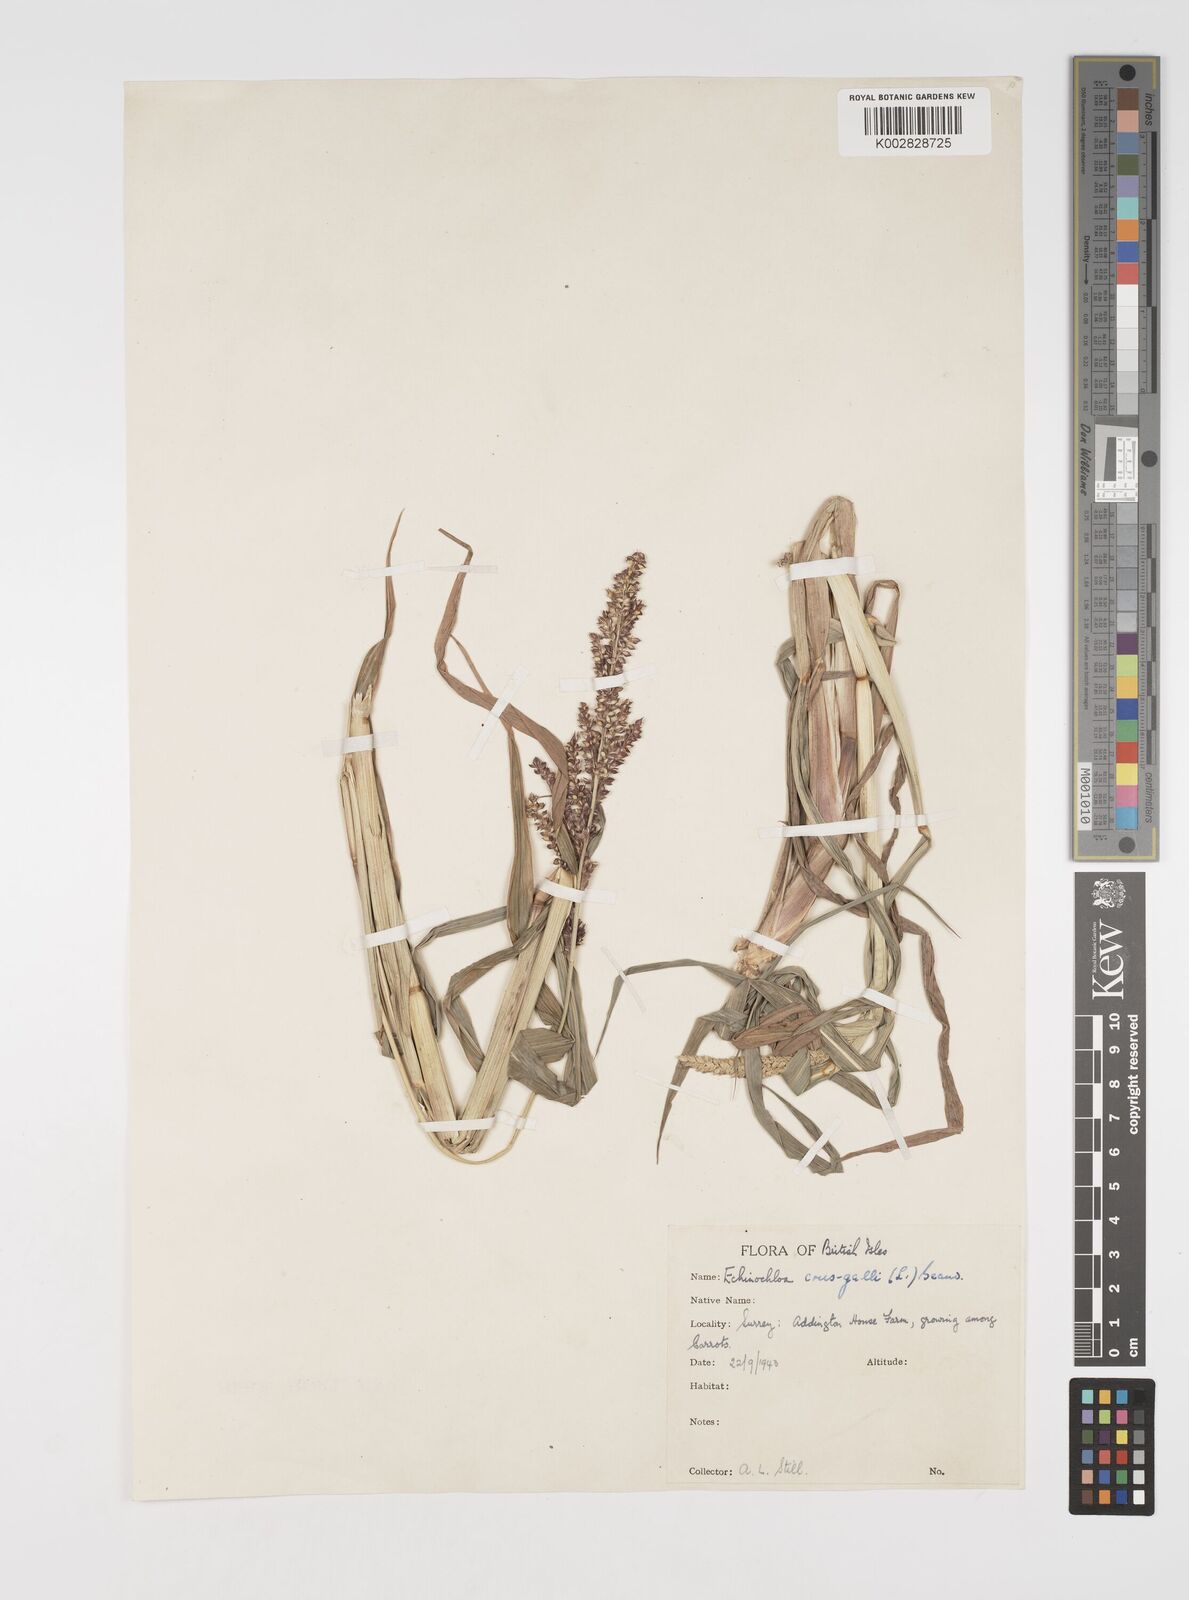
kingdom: Plantae
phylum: Tracheophyta
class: Liliopsida
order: Poales
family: Poaceae
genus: Echinochloa
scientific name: Echinochloa crus-galli
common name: Cockspur
